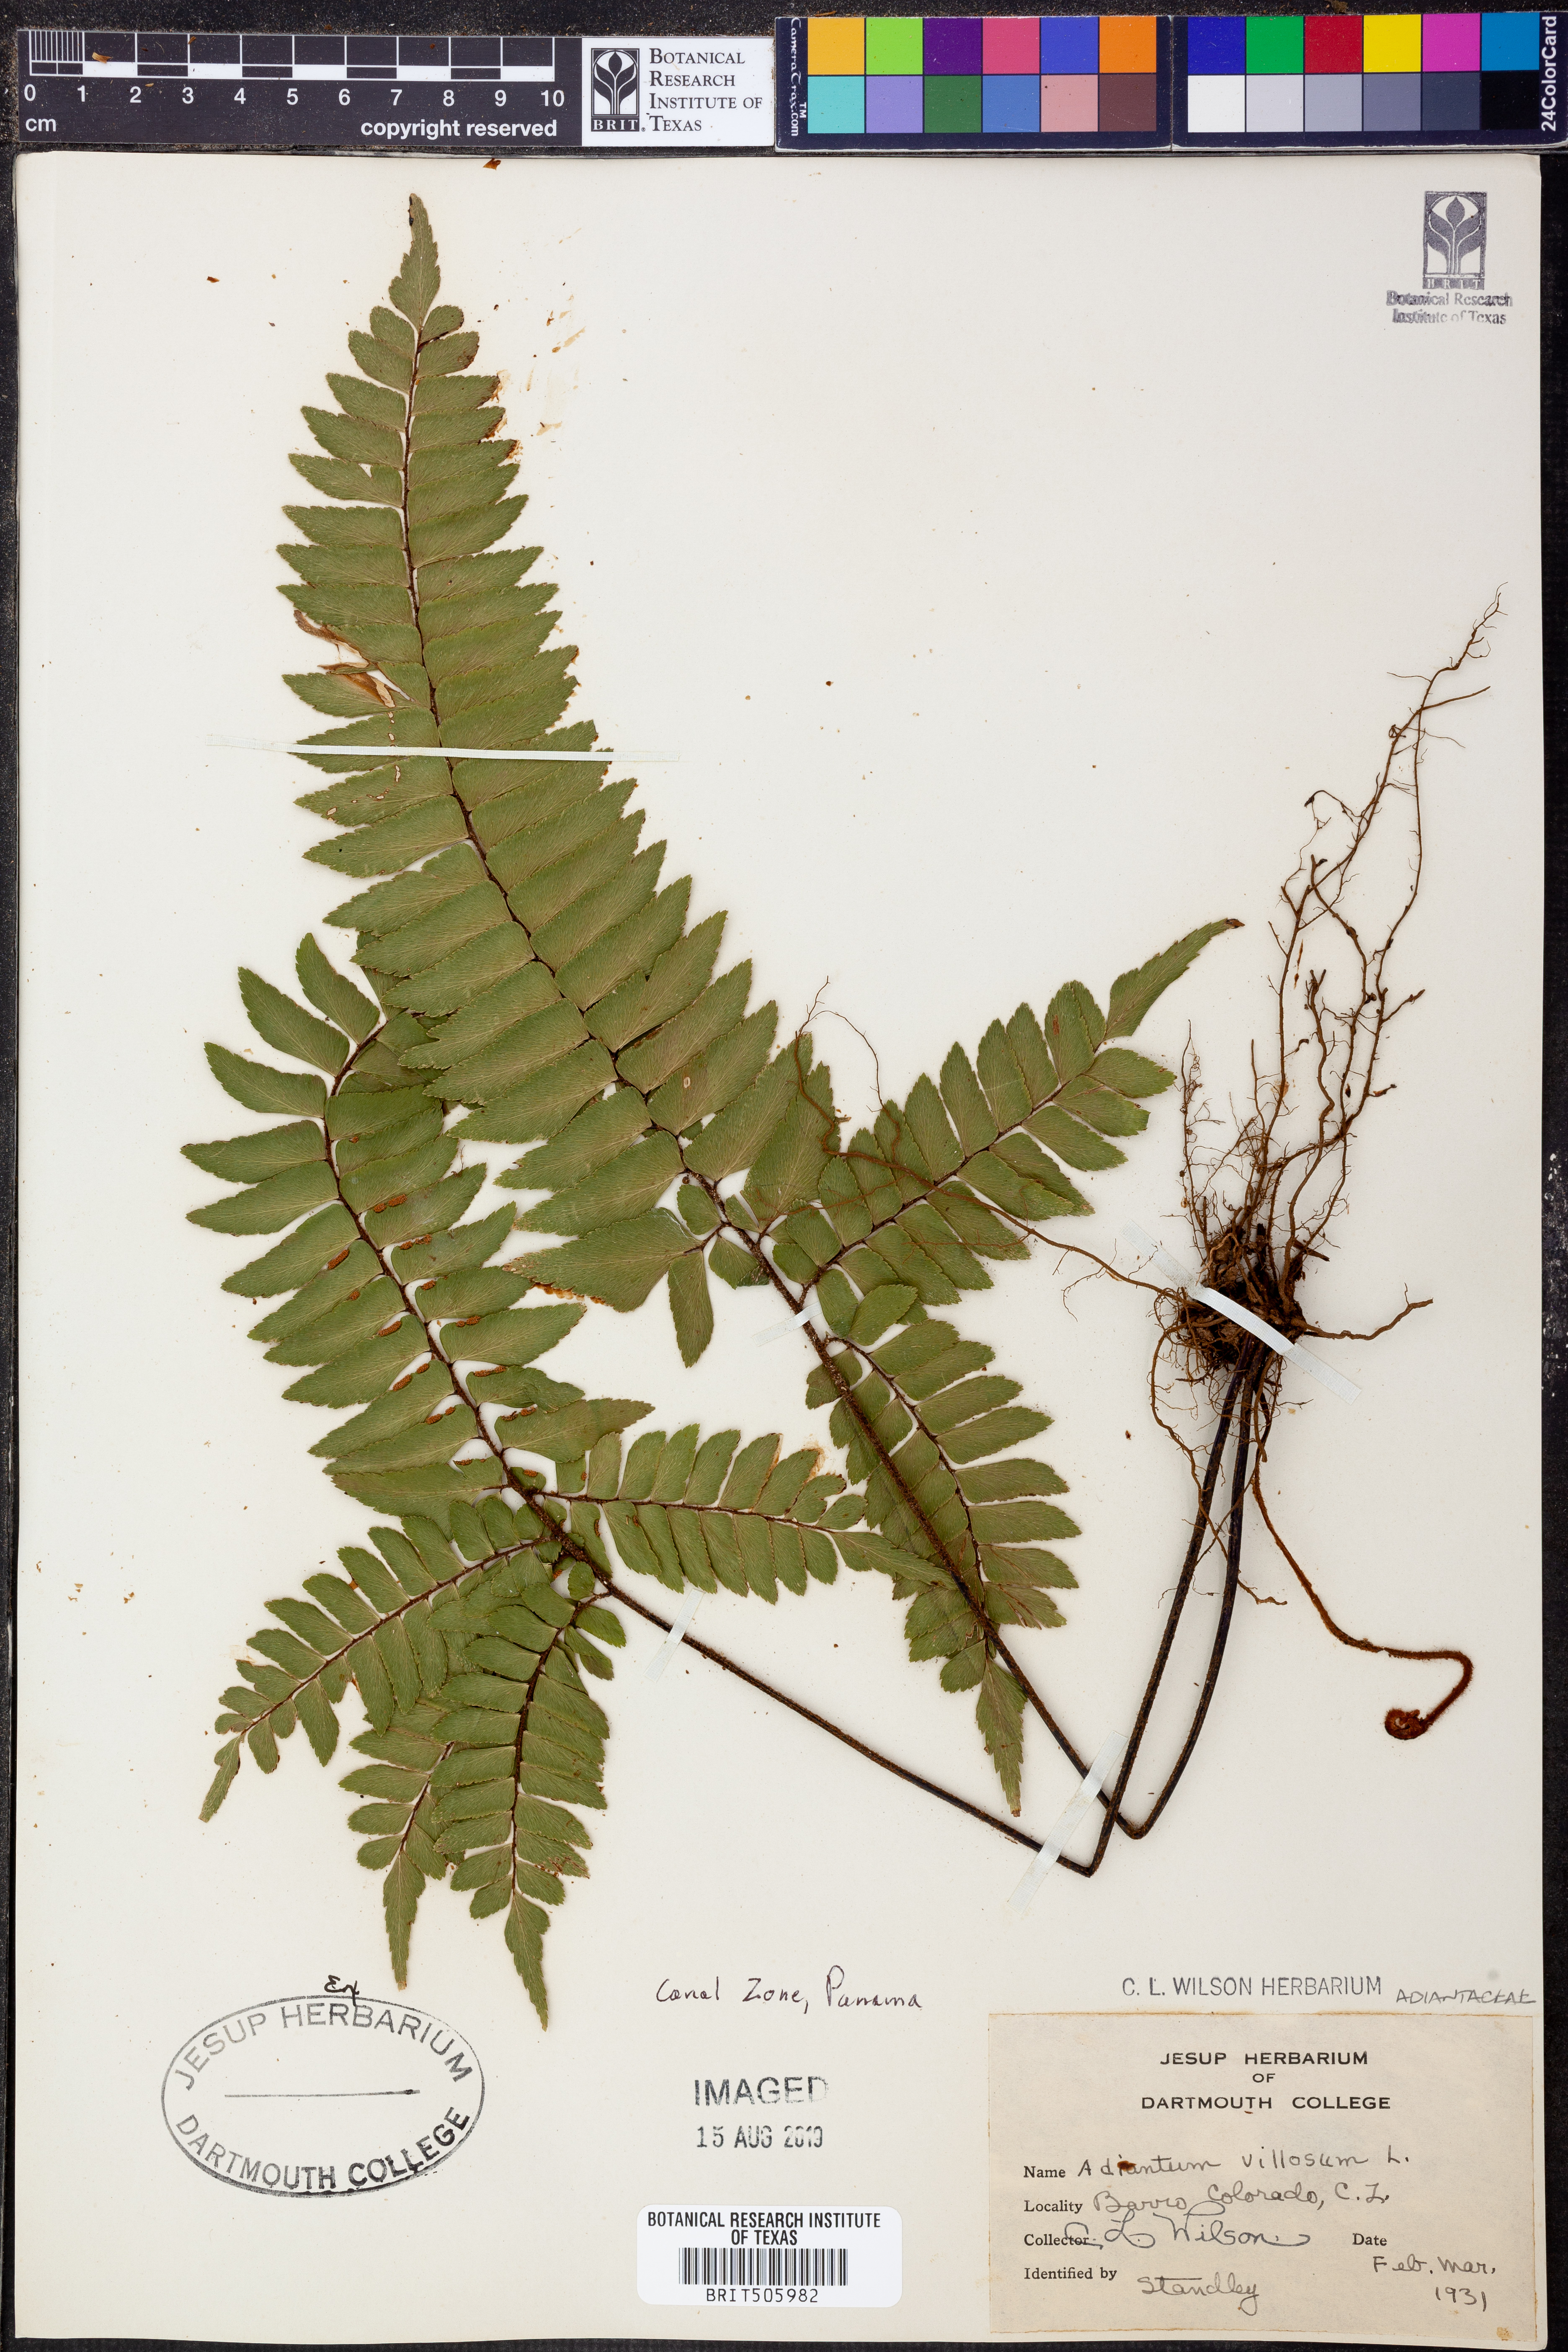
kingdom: Plantae
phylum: Tracheophyta
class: Polypodiopsida
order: Polypodiales
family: Pteridaceae
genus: Adiantum
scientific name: Adiantum villosum
